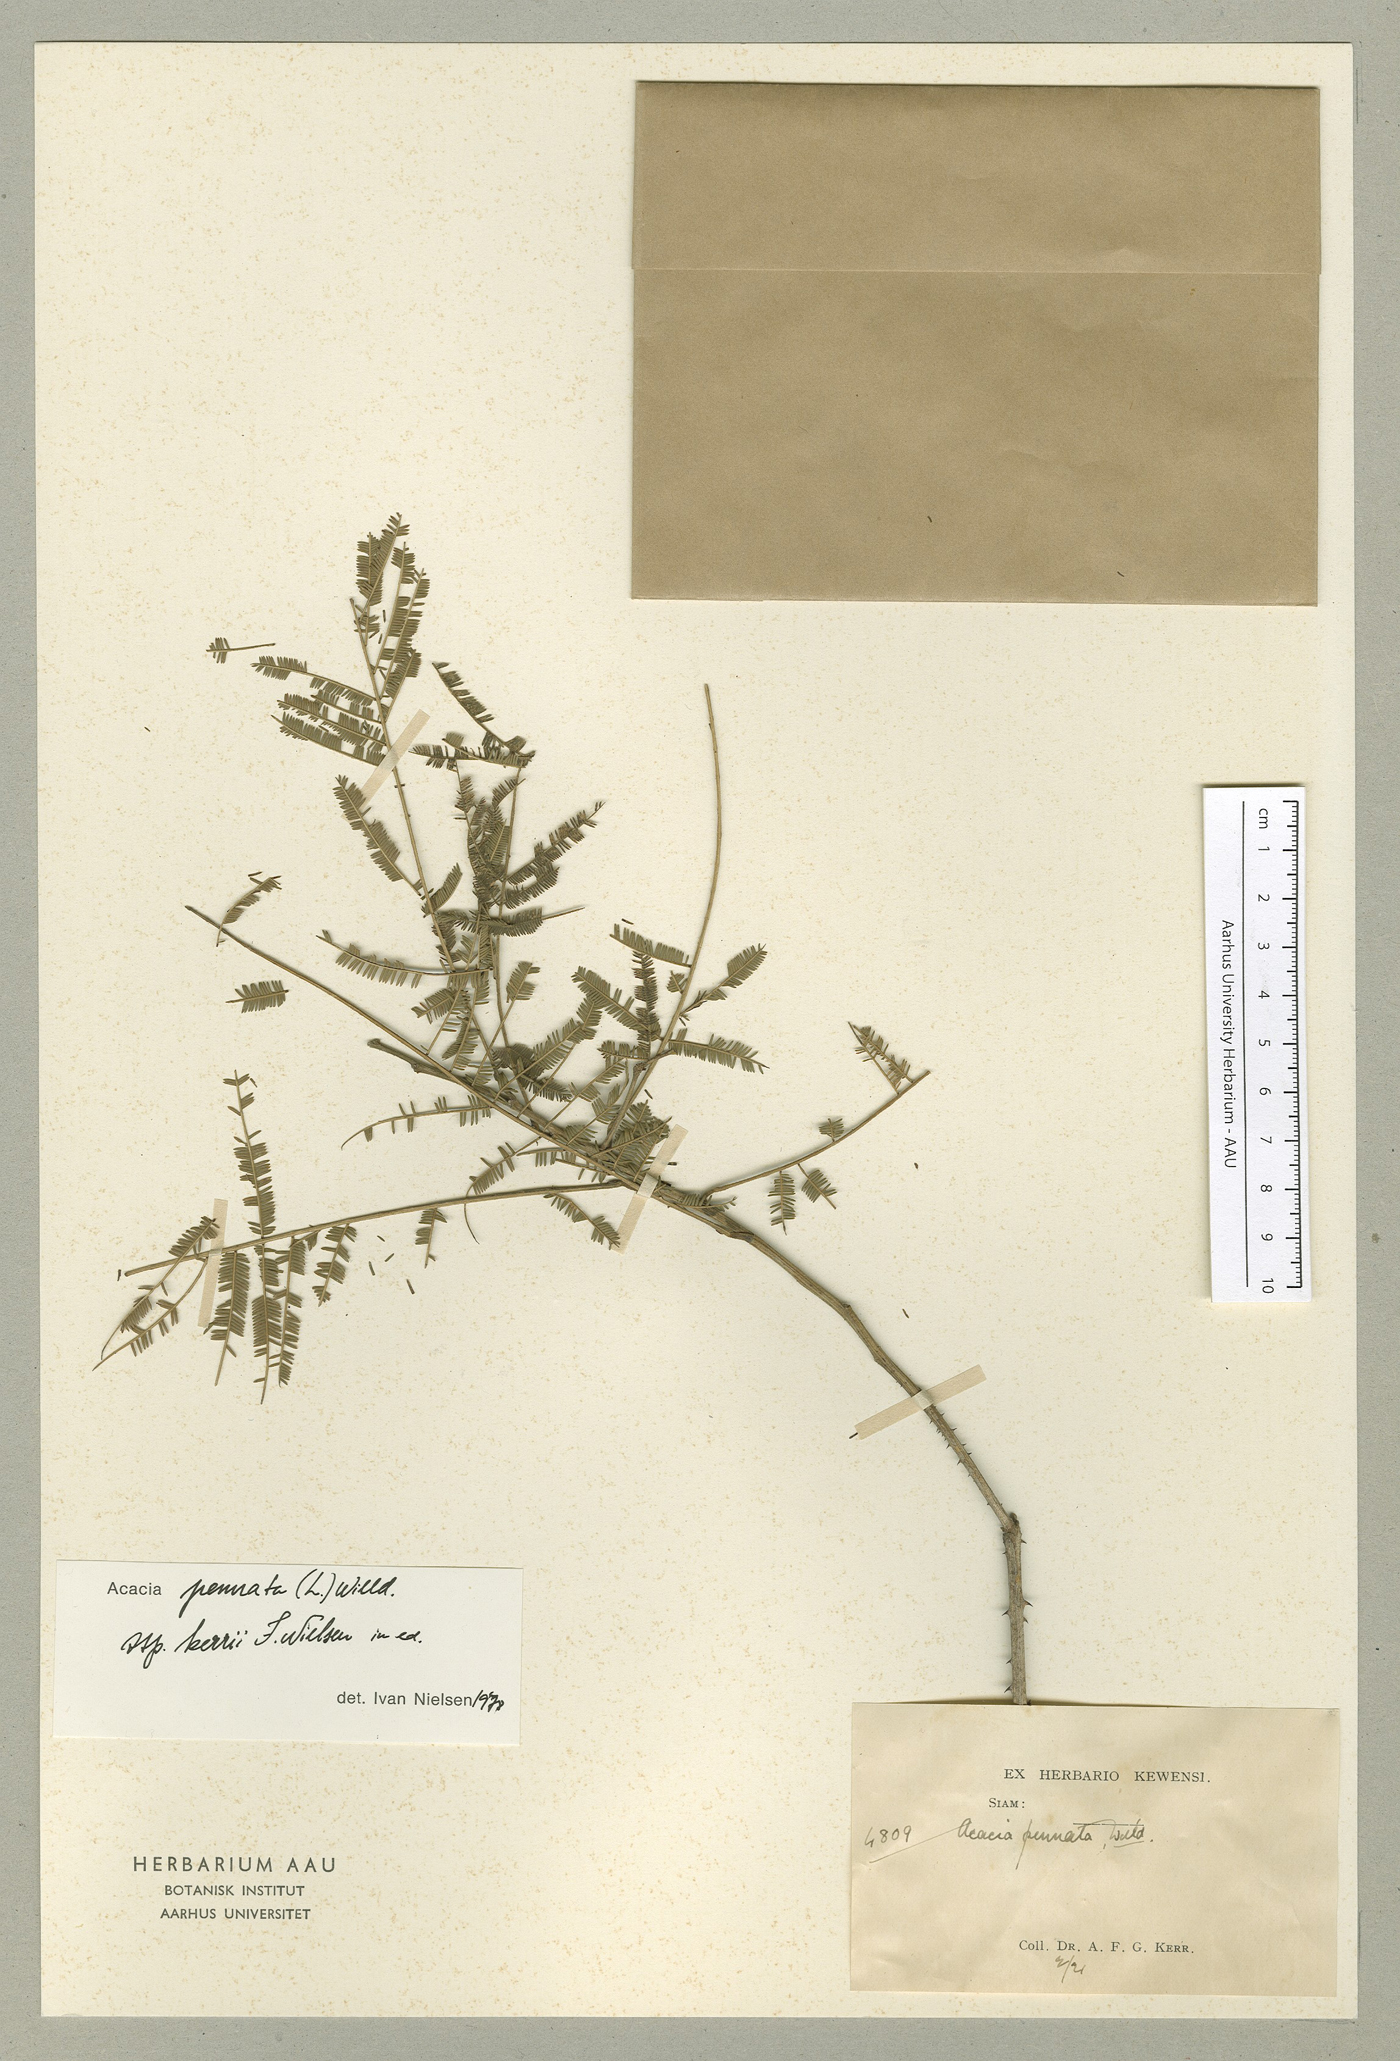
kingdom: Plantae
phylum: Tracheophyta
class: Magnoliopsida
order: Fabales
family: Fabaceae
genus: Senegalia
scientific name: Senegalia kerrii
